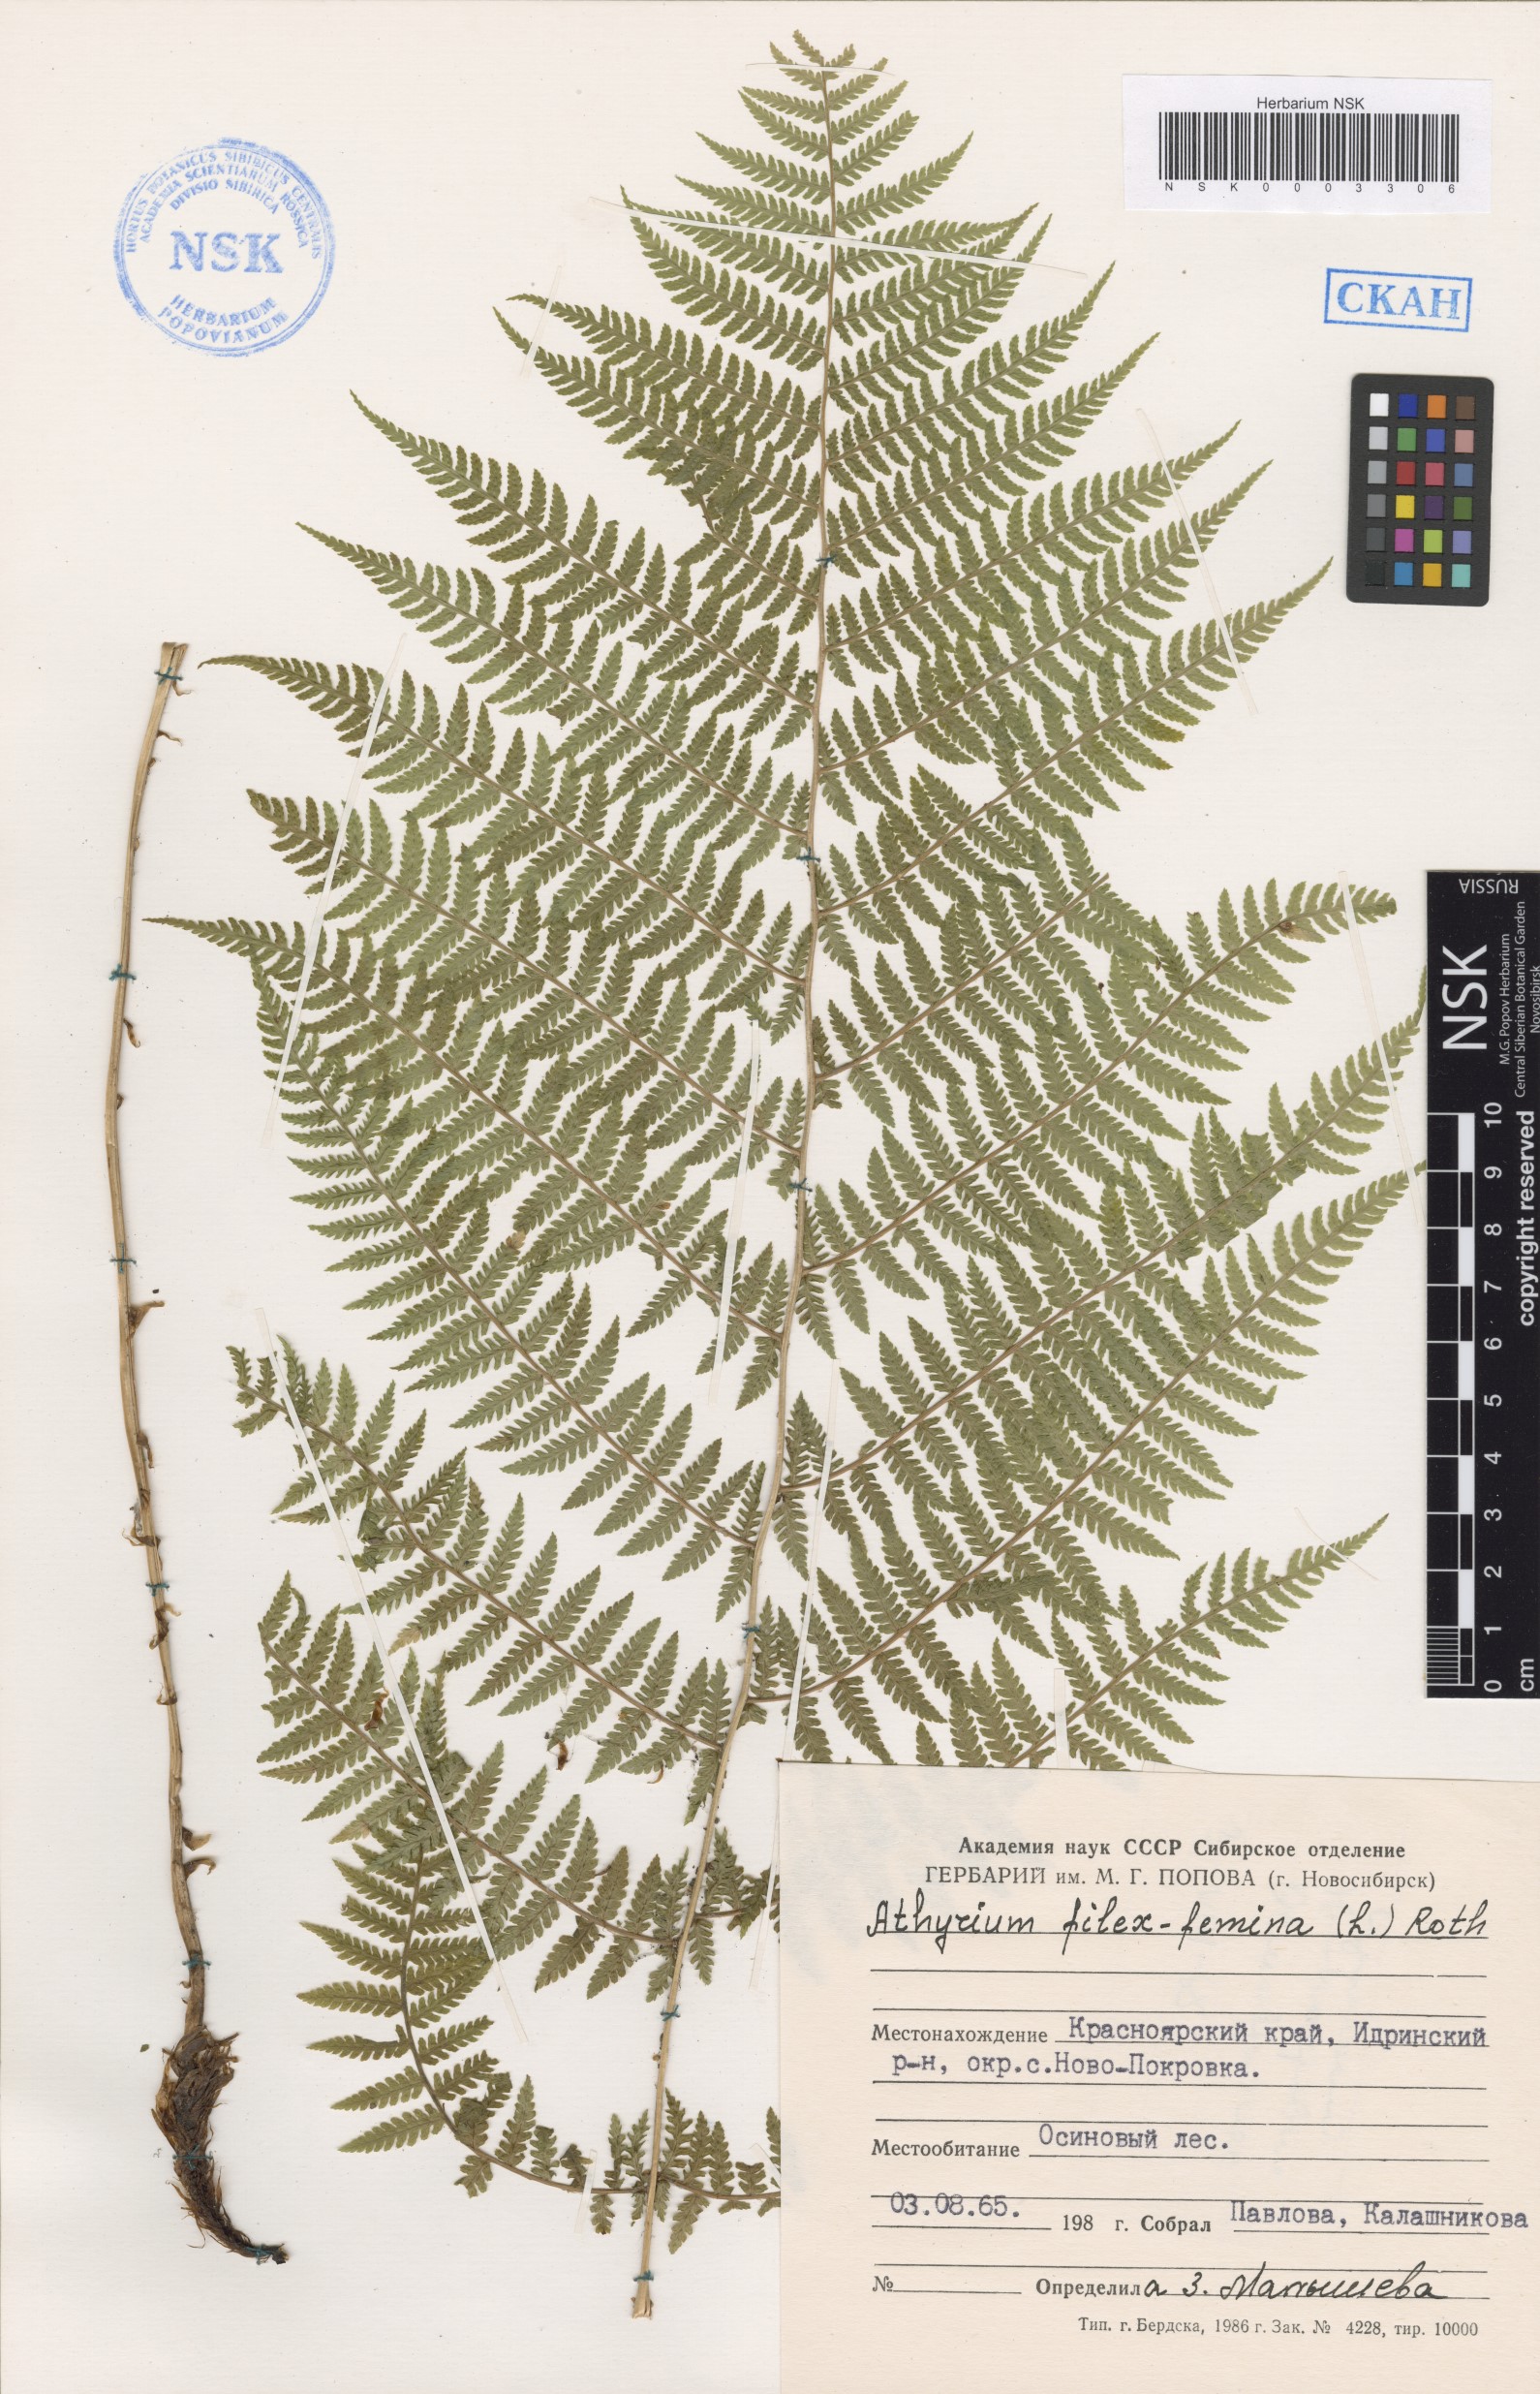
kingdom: Plantae
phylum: Tracheophyta
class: Polypodiopsida
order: Polypodiales
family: Athyriaceae
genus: Athyrium
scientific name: Athyrium filix-femina
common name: Lady fern
